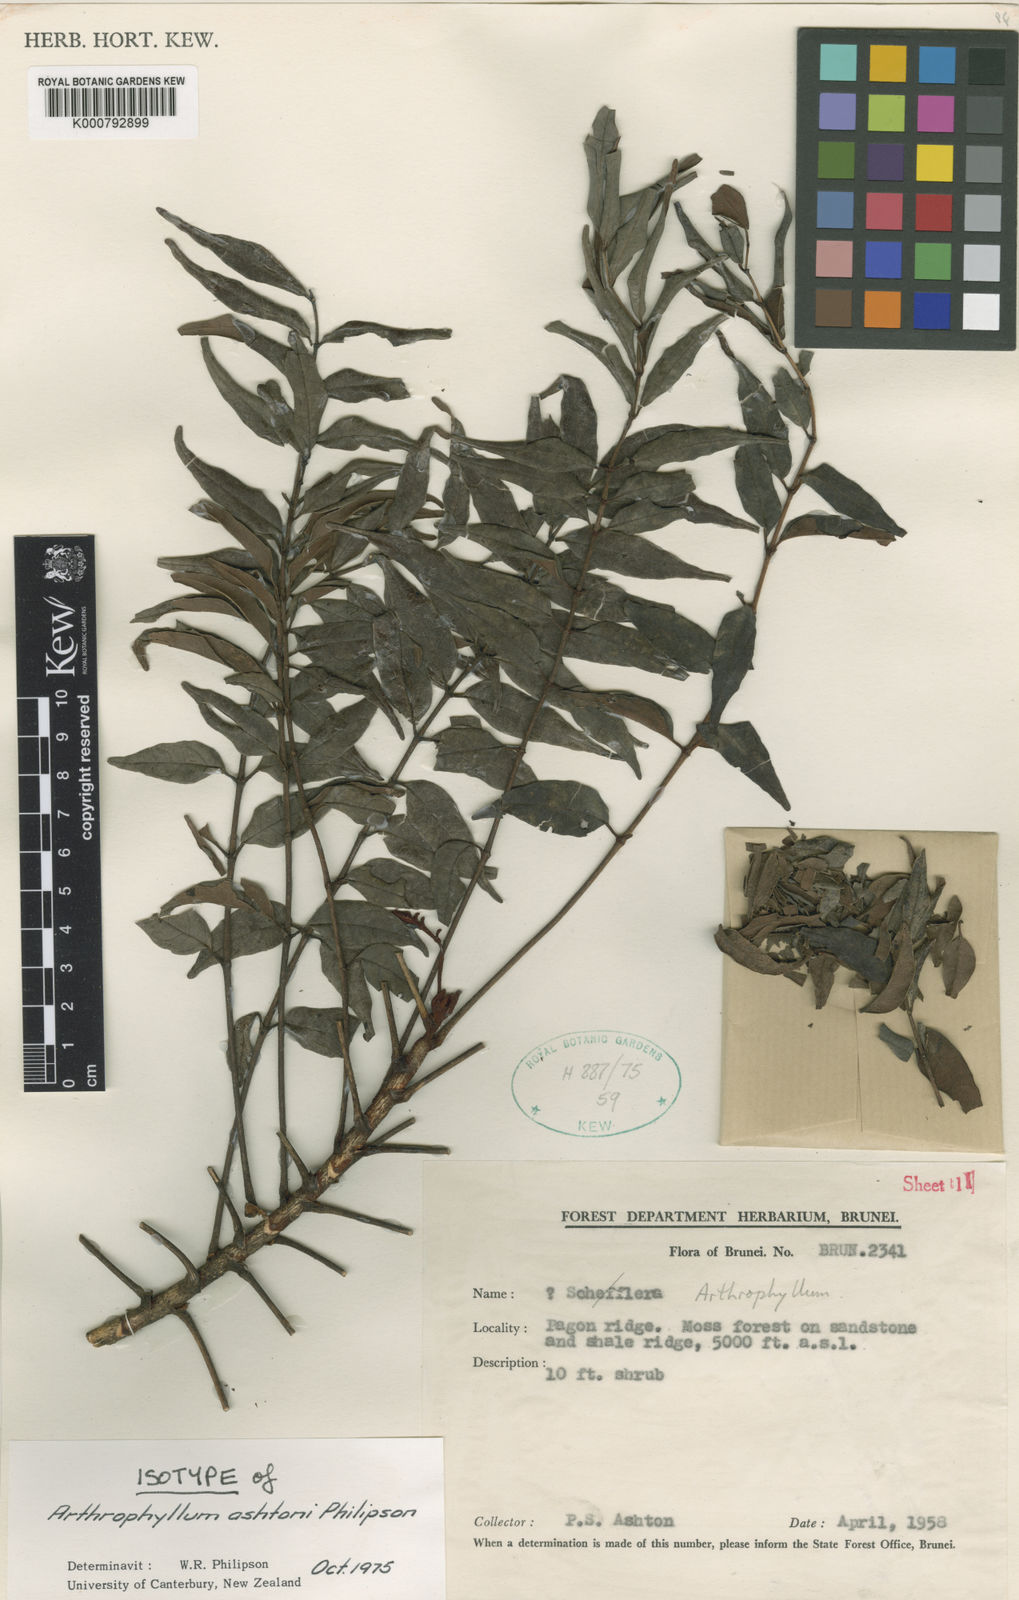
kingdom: Plantae
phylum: Tracheophyta
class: Magnoliopsida
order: Apiales
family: Araliaceae
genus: Polyscias
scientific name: Polyscias ashtonii
